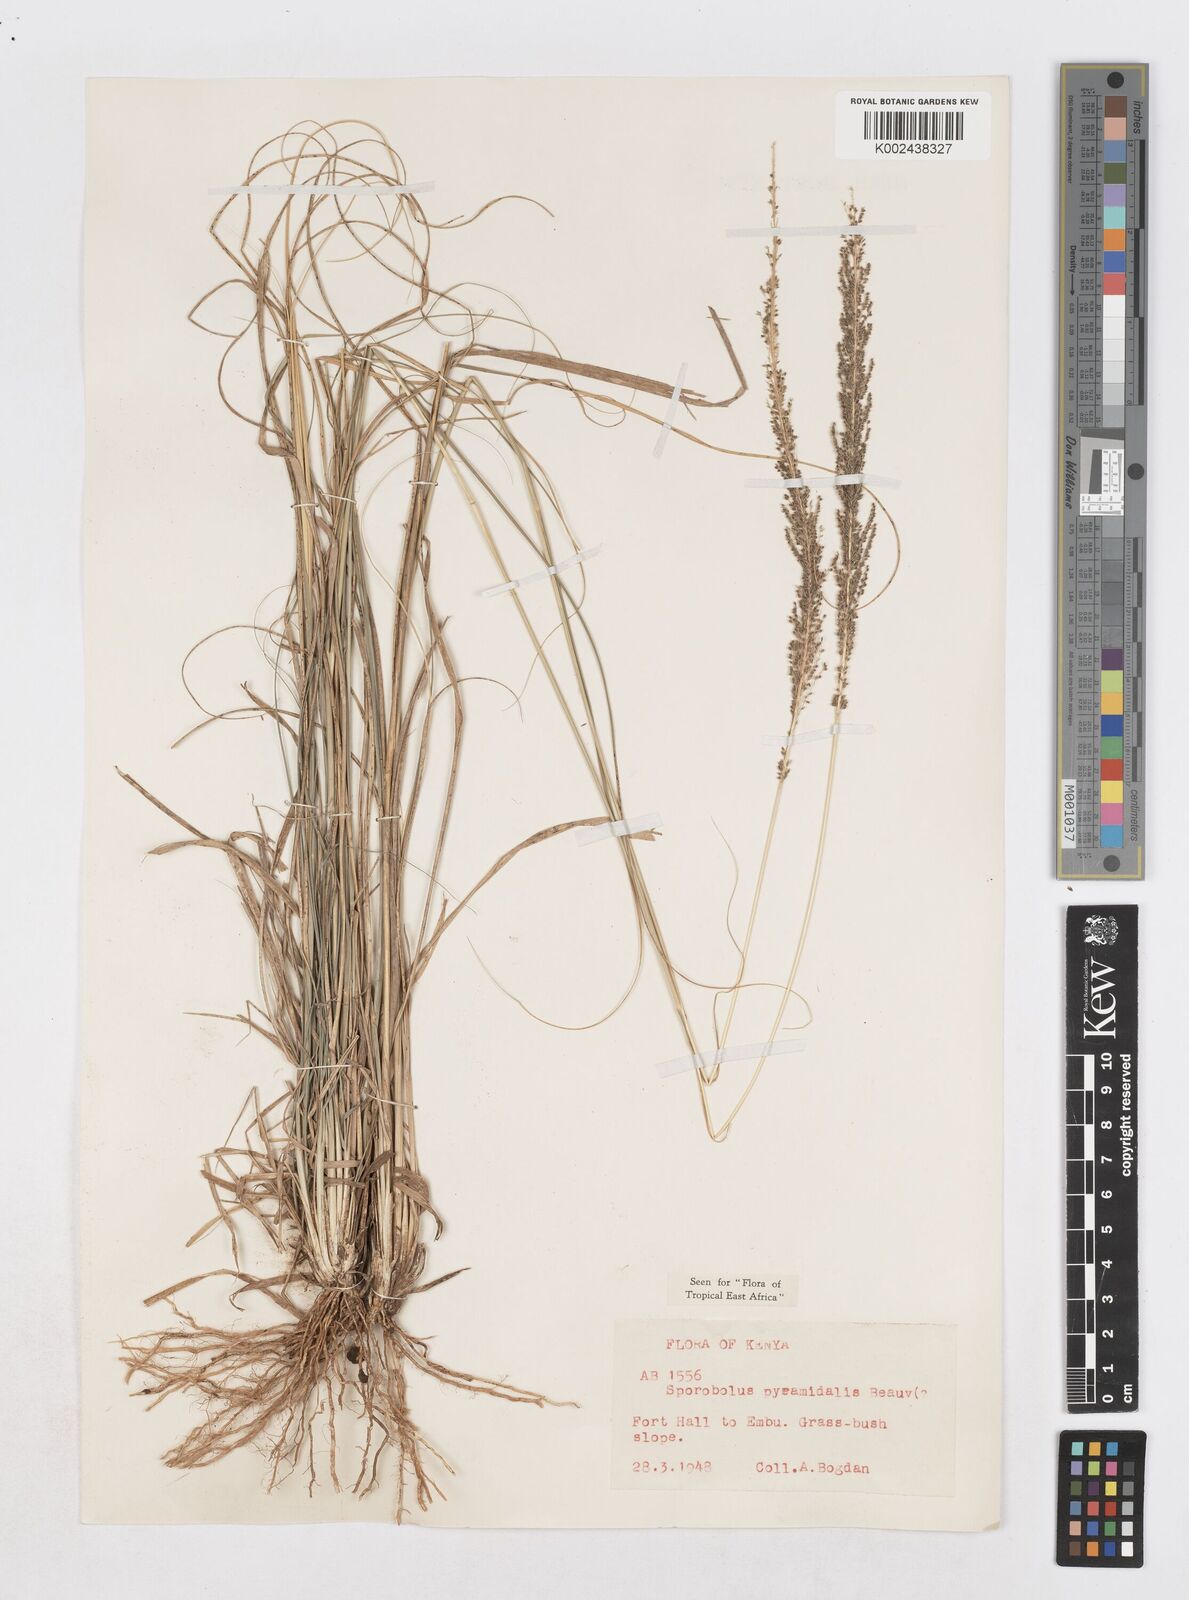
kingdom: Plantae
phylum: Tracheophyta
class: Liliopsida
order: Poales
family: Poaceae
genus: Sporobolus
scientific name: Sporobolus pyramidalis
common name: West indian dropseed
